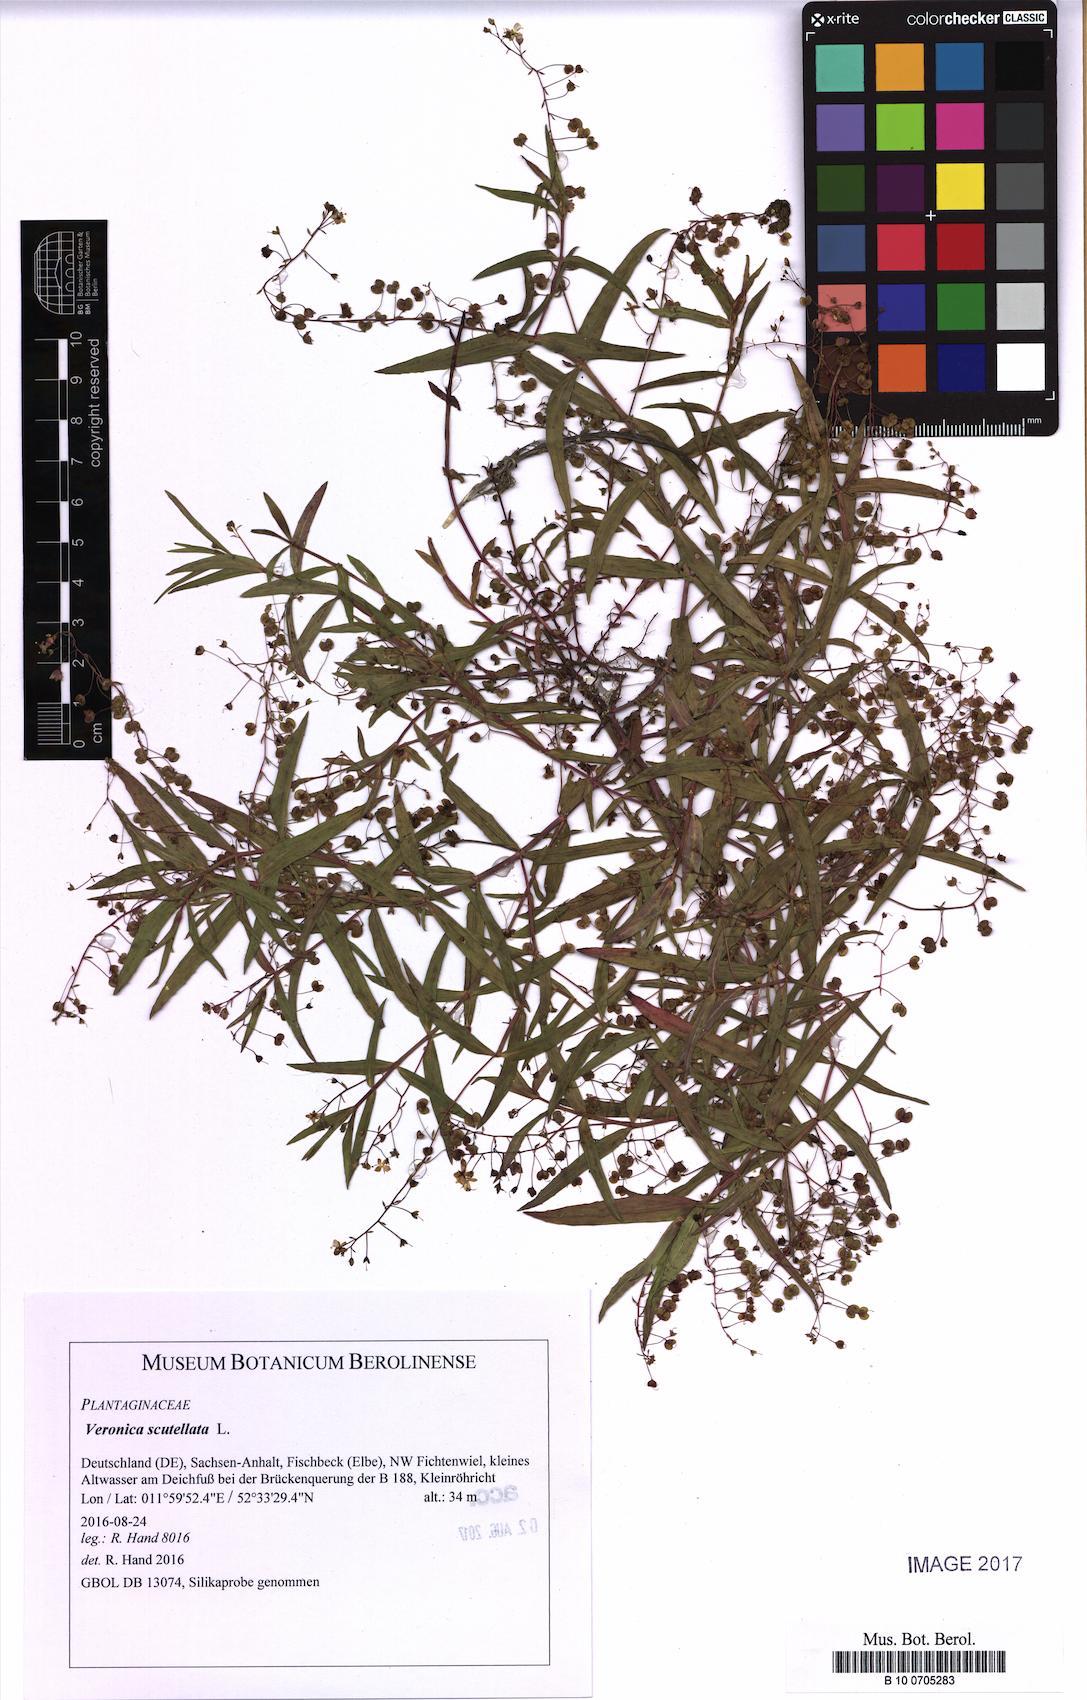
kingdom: Plantae
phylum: Tracheophyta
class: Magnoliopsida
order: Lamiales
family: Plantaginaceae
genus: Veronica
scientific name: Veronica scutellata
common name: Marsh speedwell
